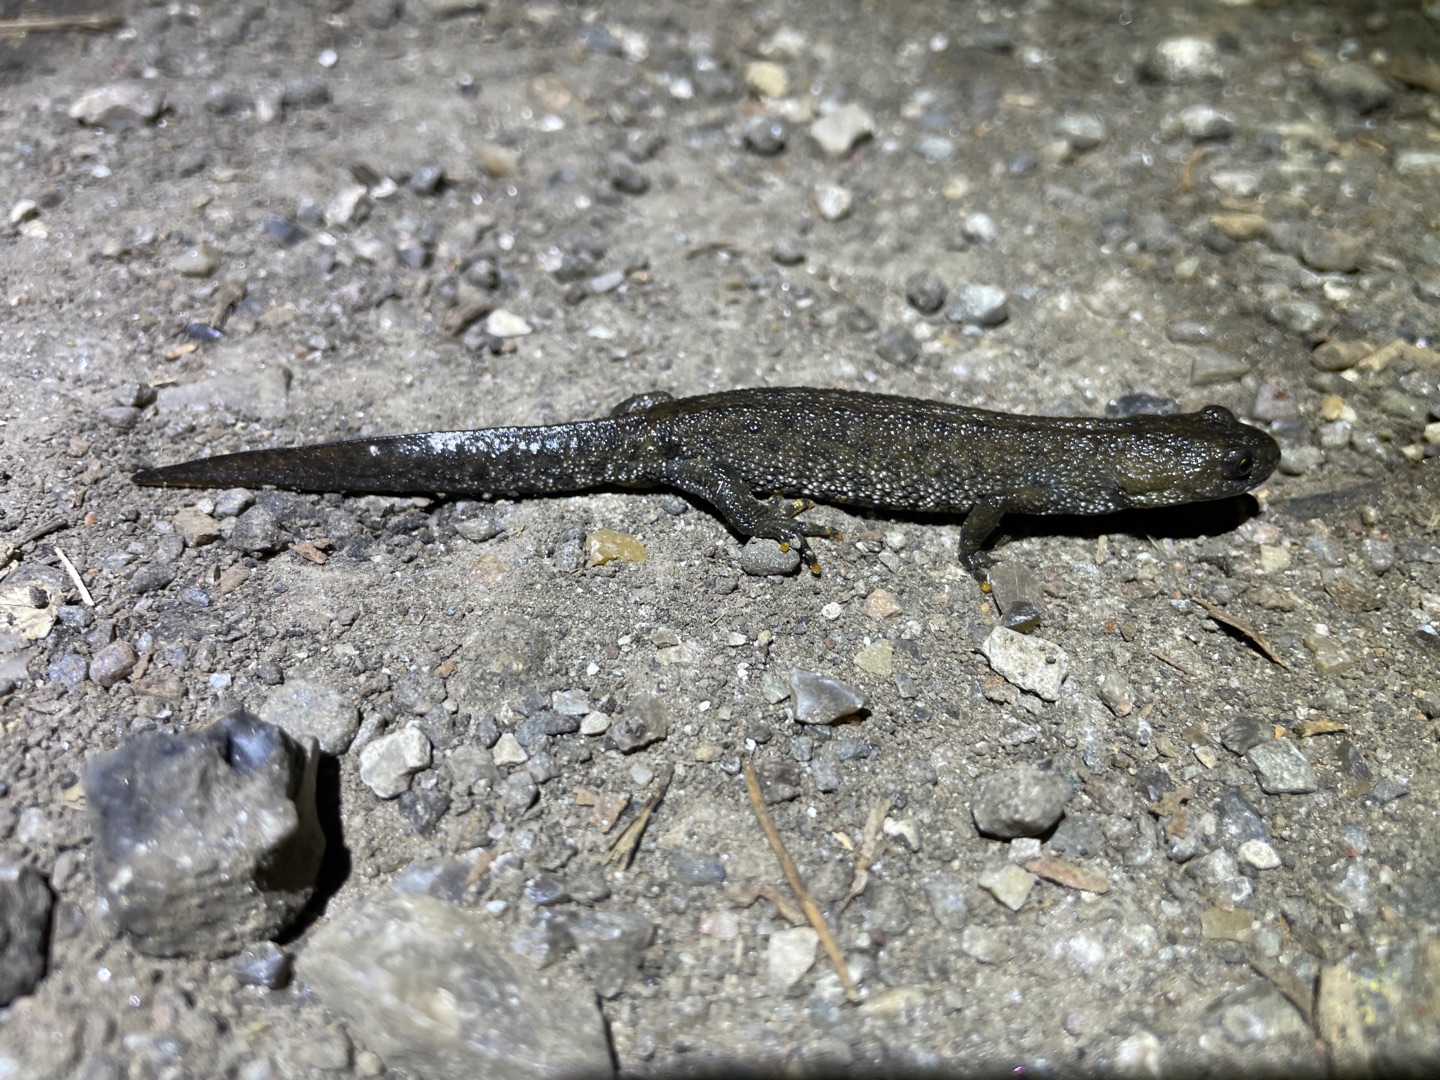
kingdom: Animalia
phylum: Chordata
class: Amphibia
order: Caudata
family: Salamandridae
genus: Triturus
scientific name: Triturus cristatus
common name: Stor vandsalamander
